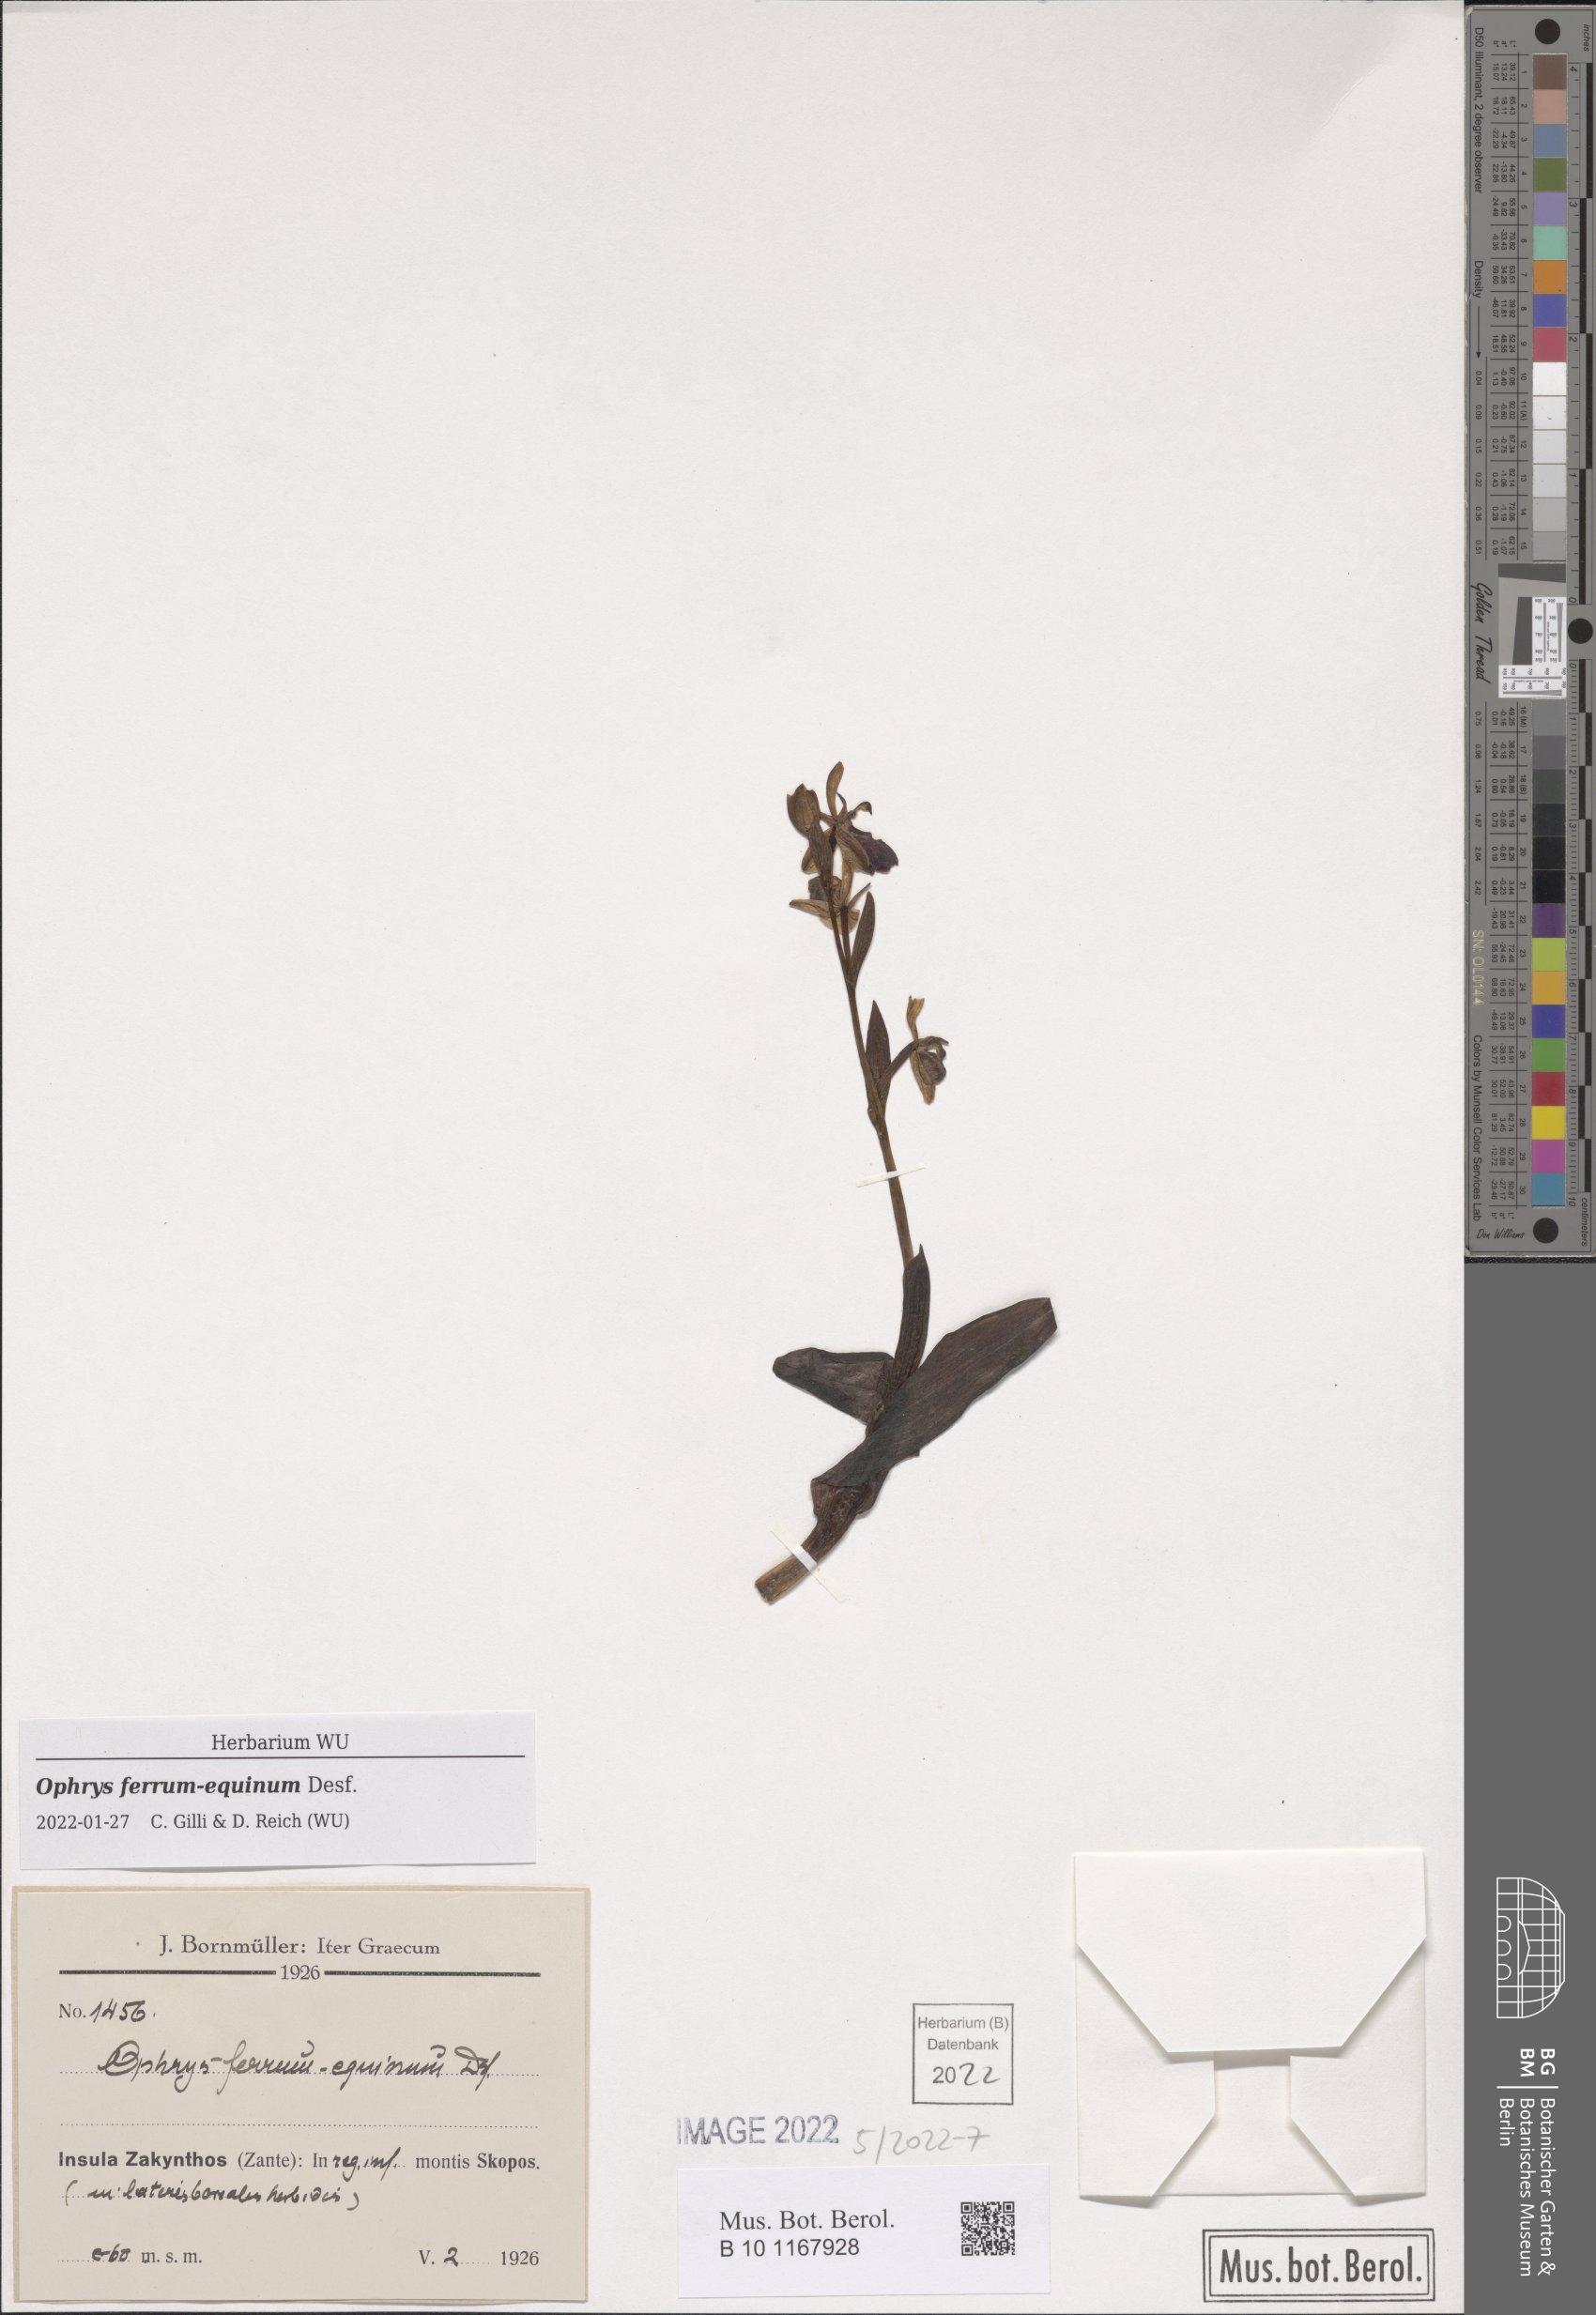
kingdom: Plantae
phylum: Tracheophyta
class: Liliopsida
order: Asparagales
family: Orchidaceae
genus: Ophrys
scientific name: Ophrys ferrum-equinum
